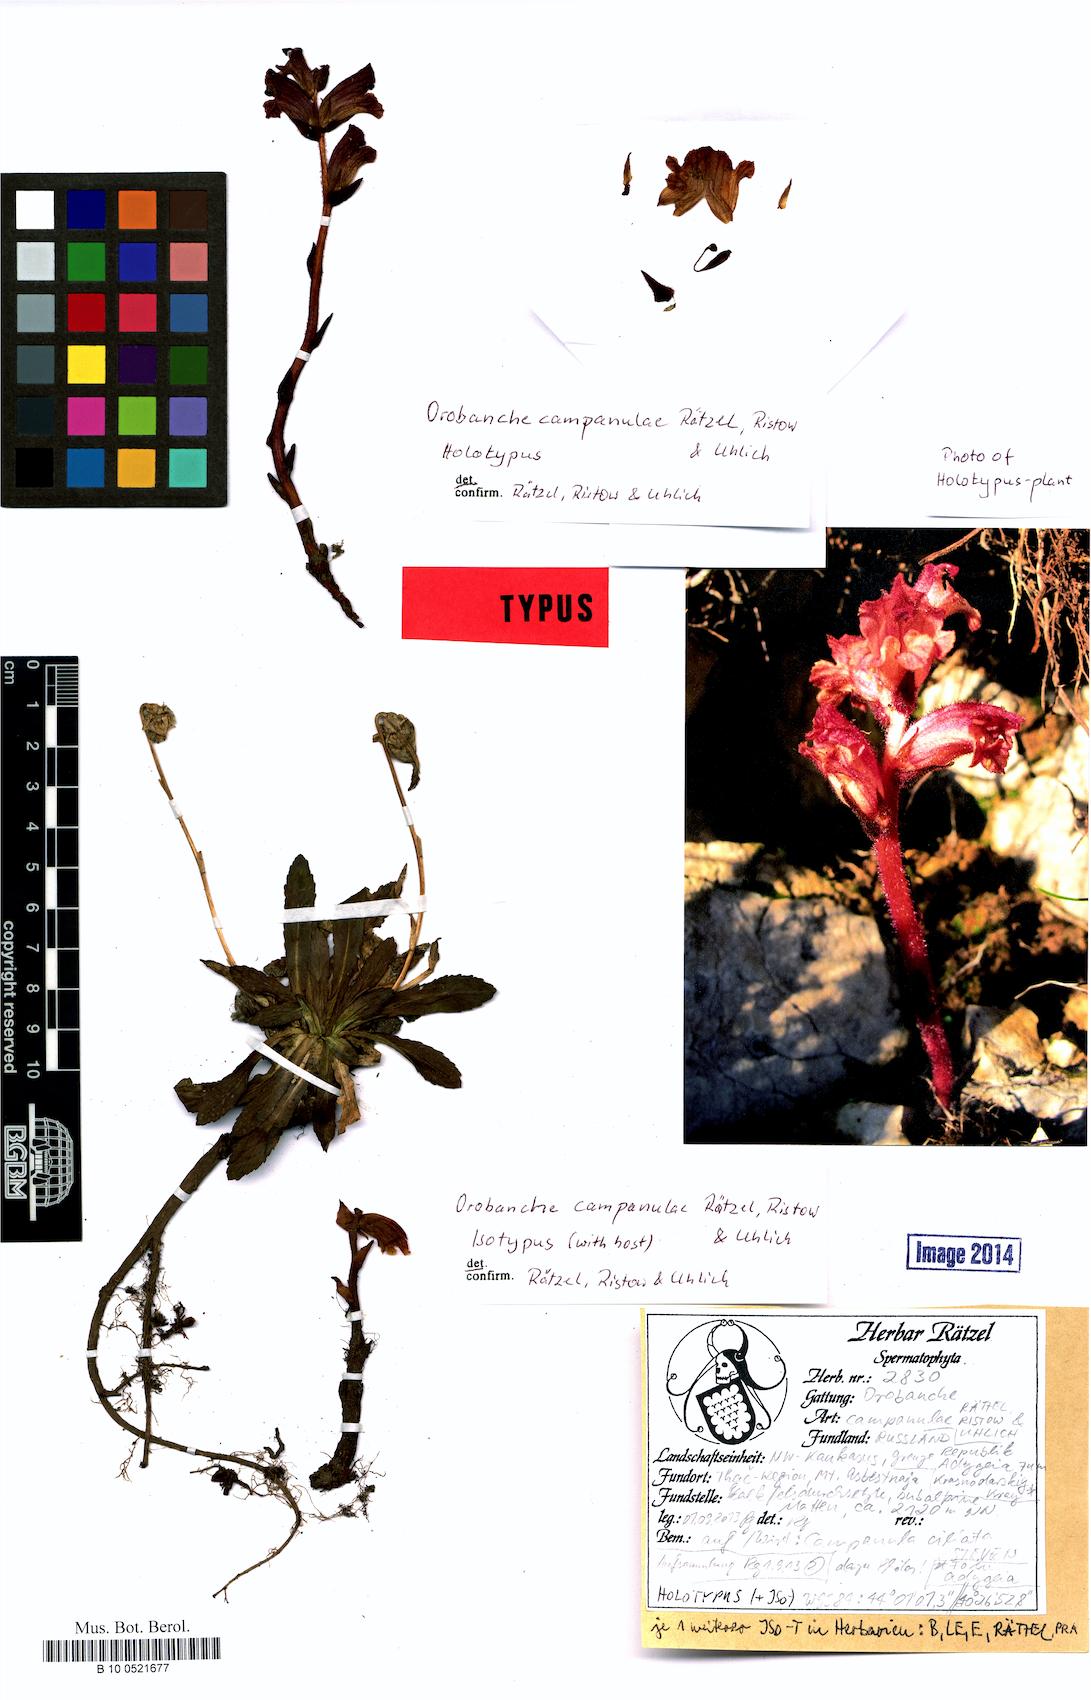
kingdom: Plantae
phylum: Tracheophyta
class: Magnoliopsida
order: Lamiales
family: Orobanchaceae
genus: Orobanche
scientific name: Orobanche campanulae
